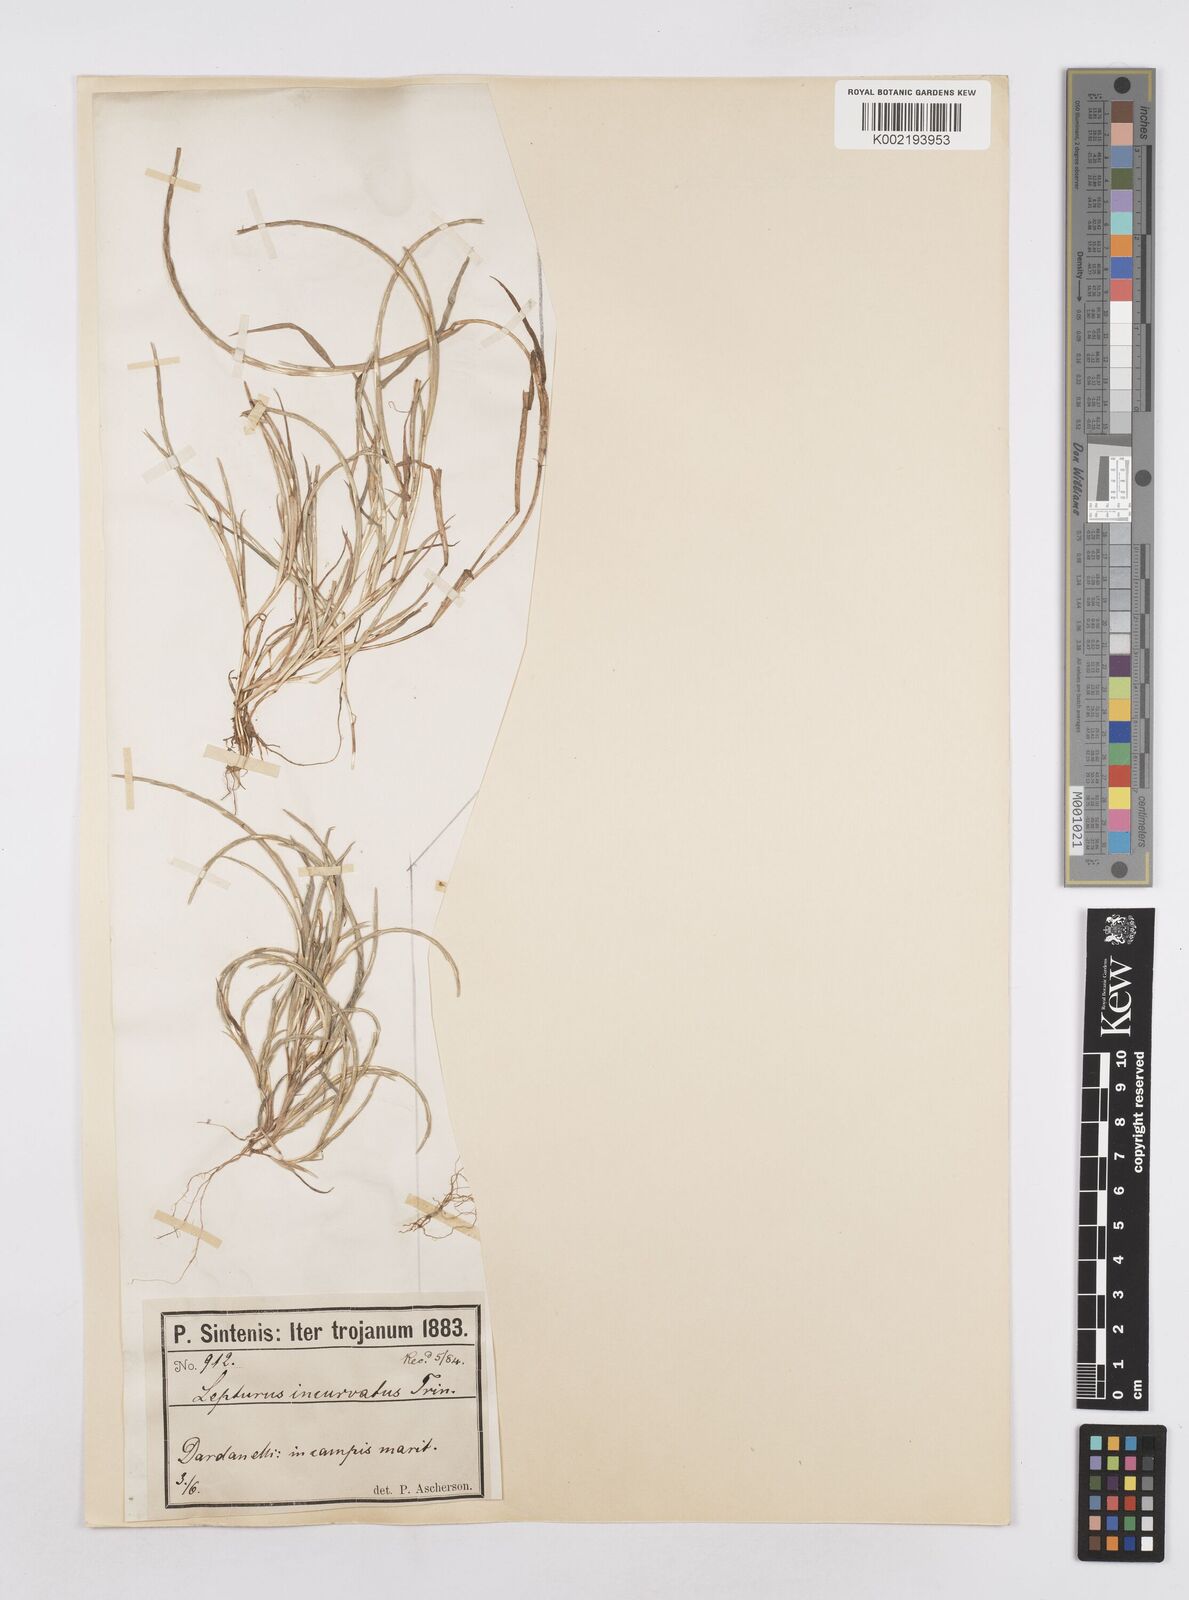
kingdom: Plantae
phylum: Tracheophyta
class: Liliopsida
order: Poales
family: Poaceae
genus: Parapholis
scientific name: Parapholis incurva
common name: Curved sicklegrass
